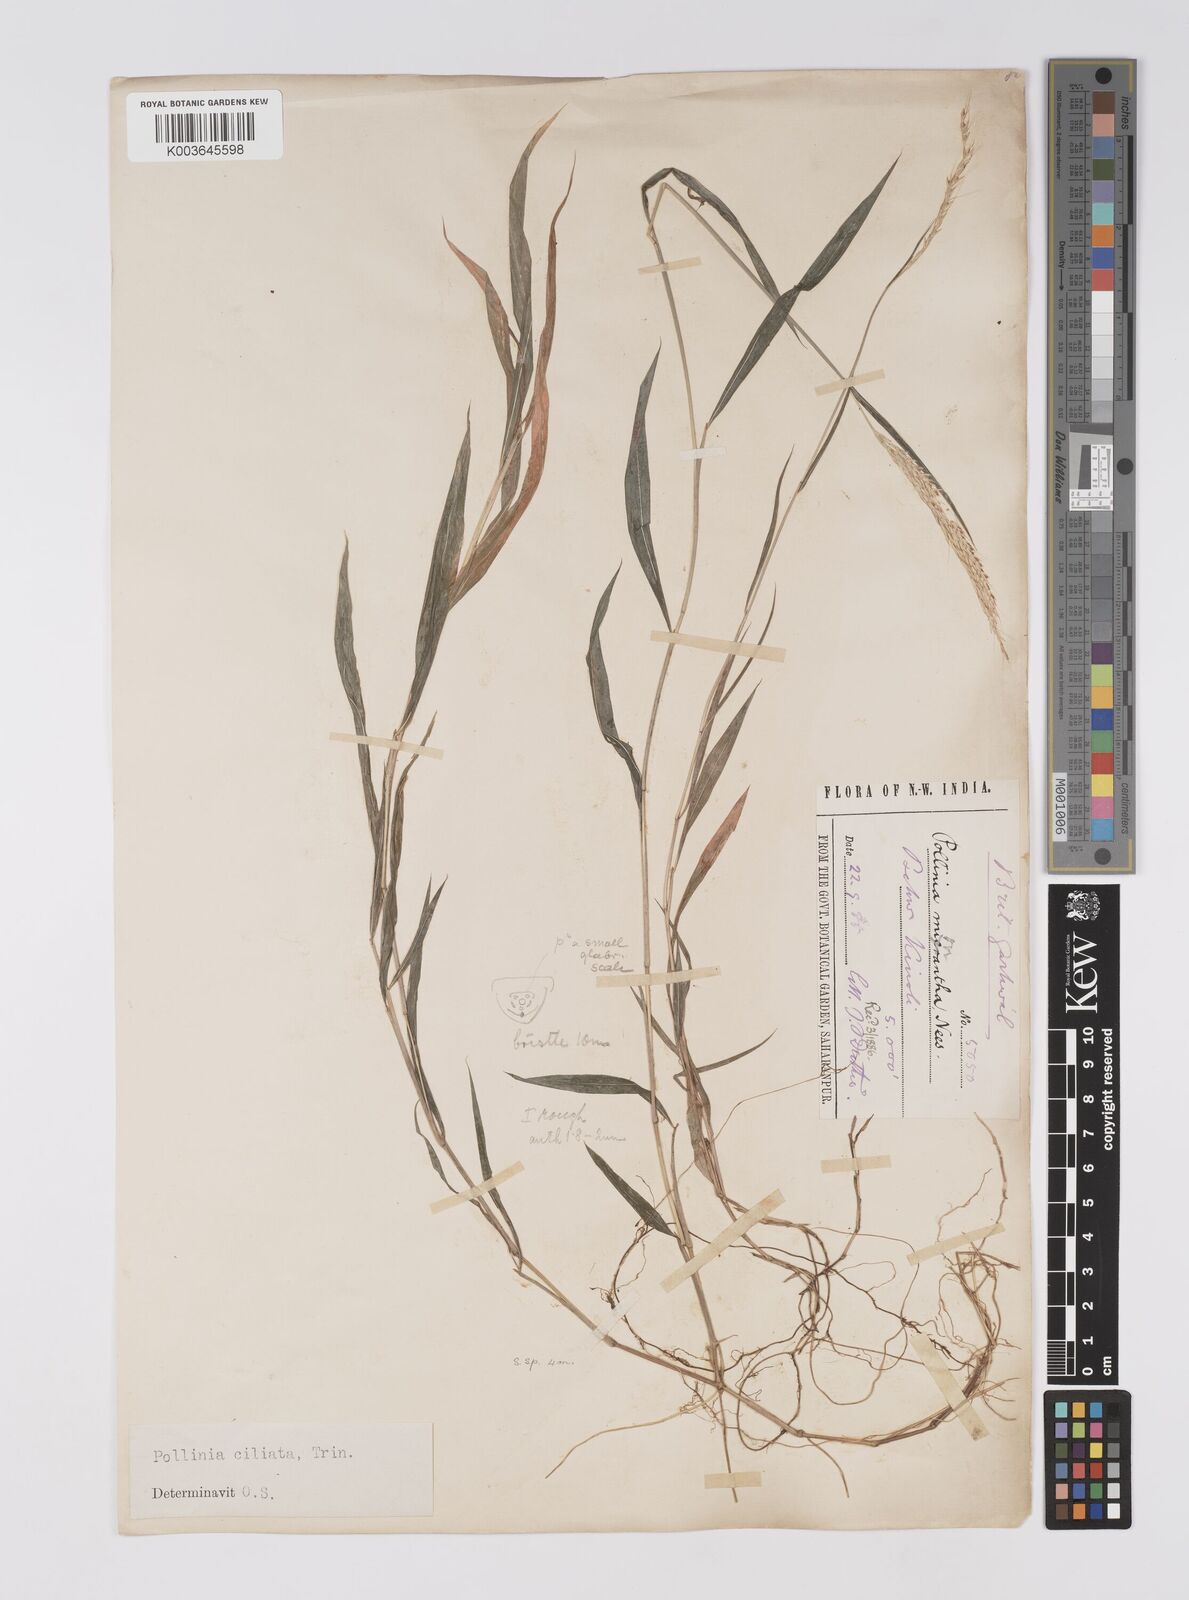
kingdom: Plantae
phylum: Tracheophyta
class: Liliopsida
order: Poales
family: Poaceae
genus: Microstegium
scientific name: Microstegium fasciculatum
